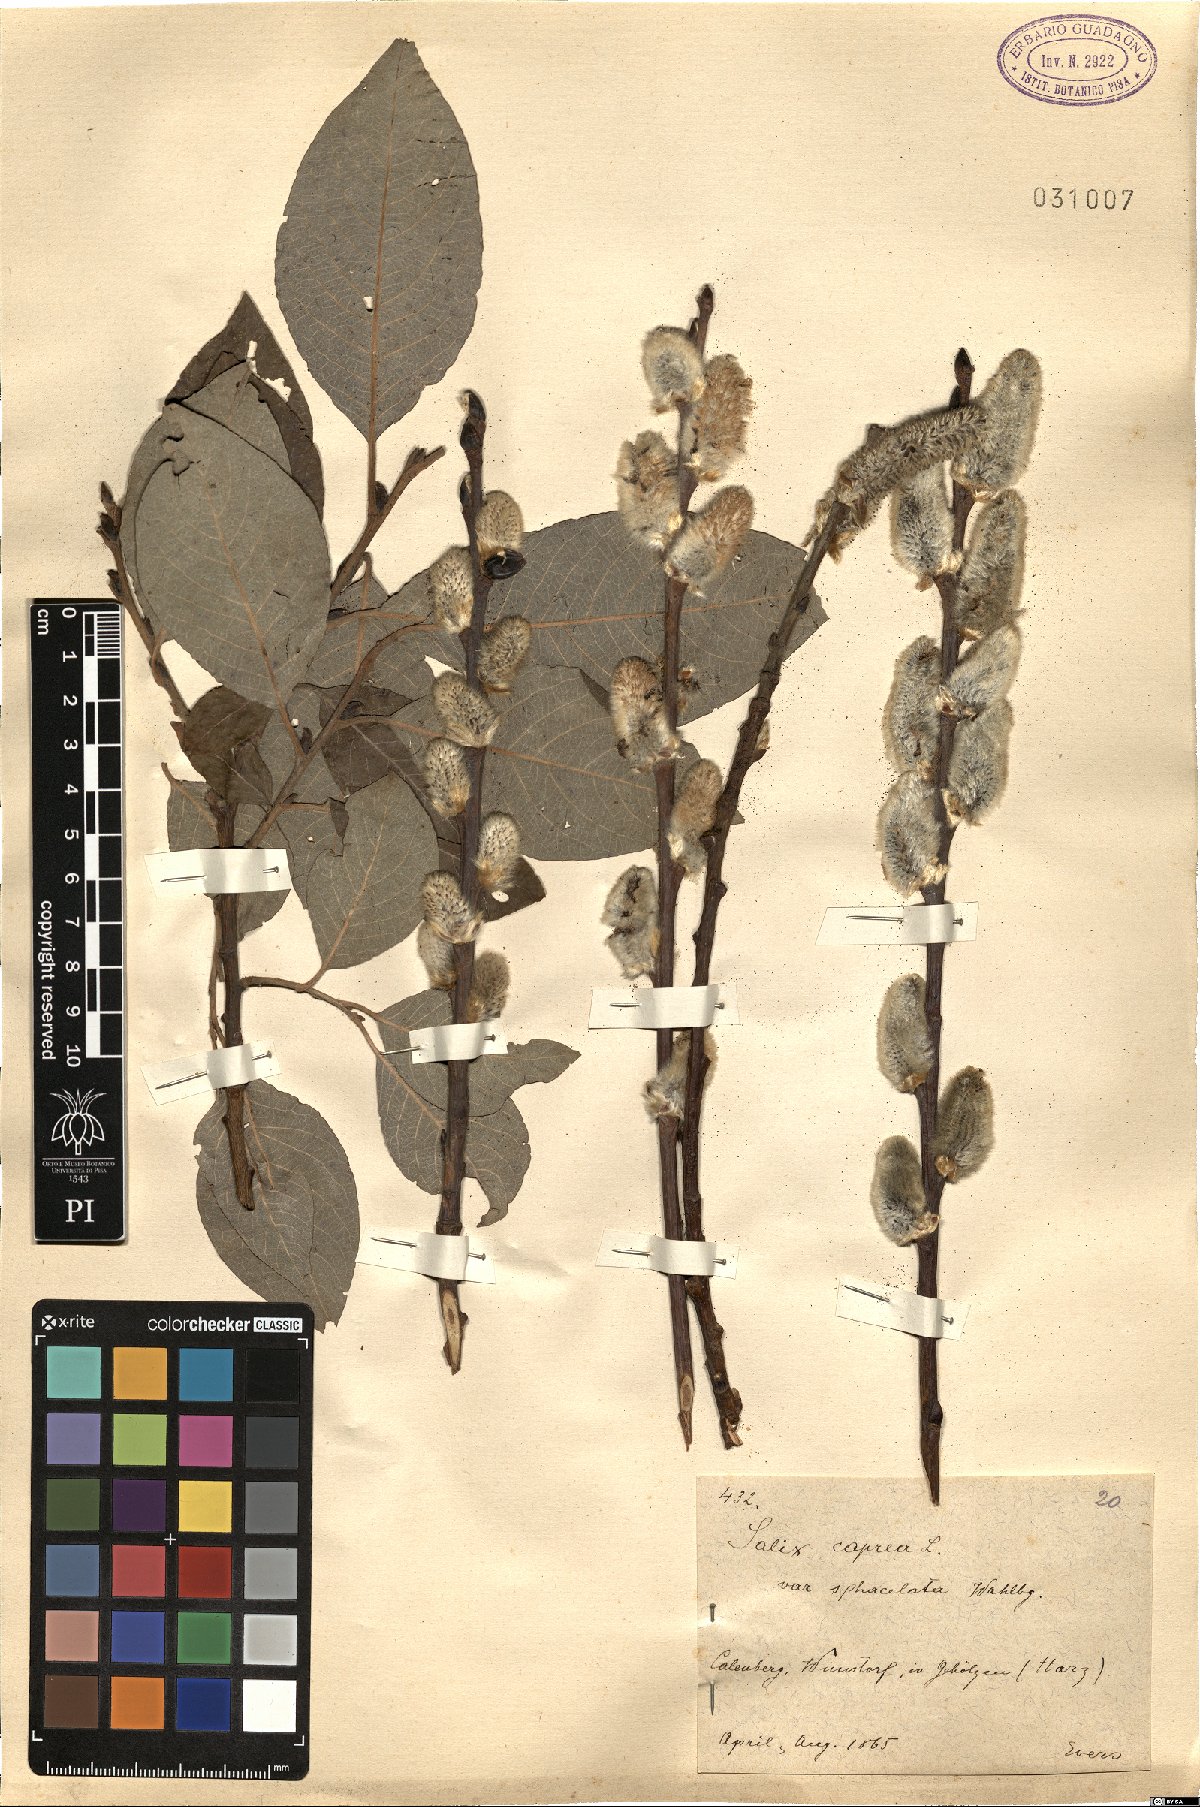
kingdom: Plantae
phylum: Tracheophyta
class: Magnoliopsida
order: Malpighiales
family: Salicaceae
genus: Salix
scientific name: Salix caprea
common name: Goat willow
